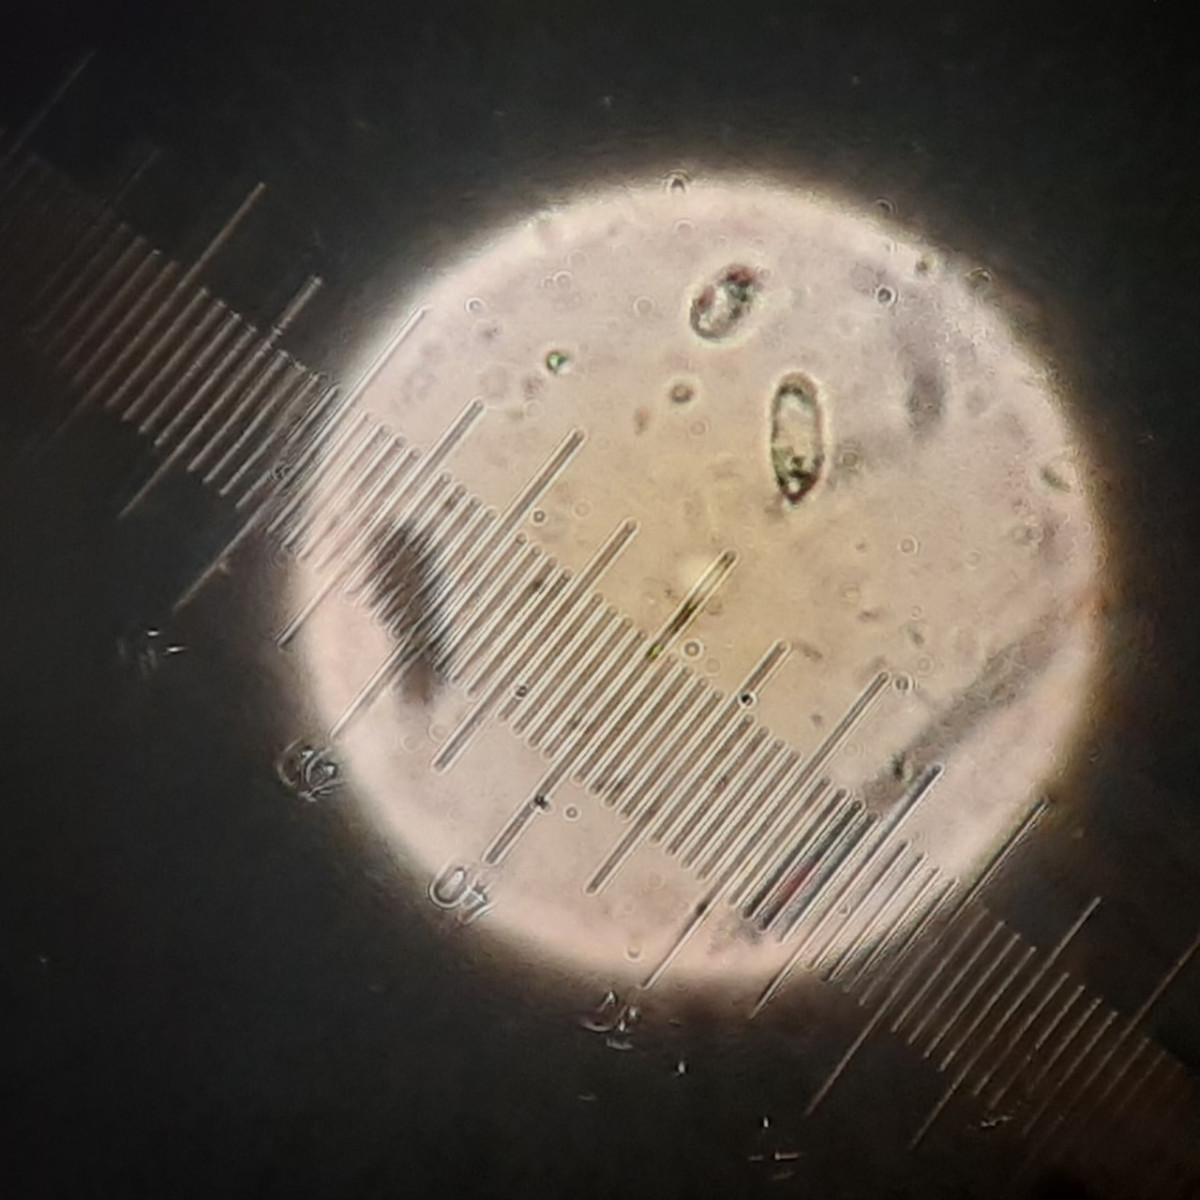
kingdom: Fungi
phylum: Basidiomycota
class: Agaricomycetes
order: Hymenochaetales
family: Rickenellaceae
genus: Rickenella
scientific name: Rickenella
